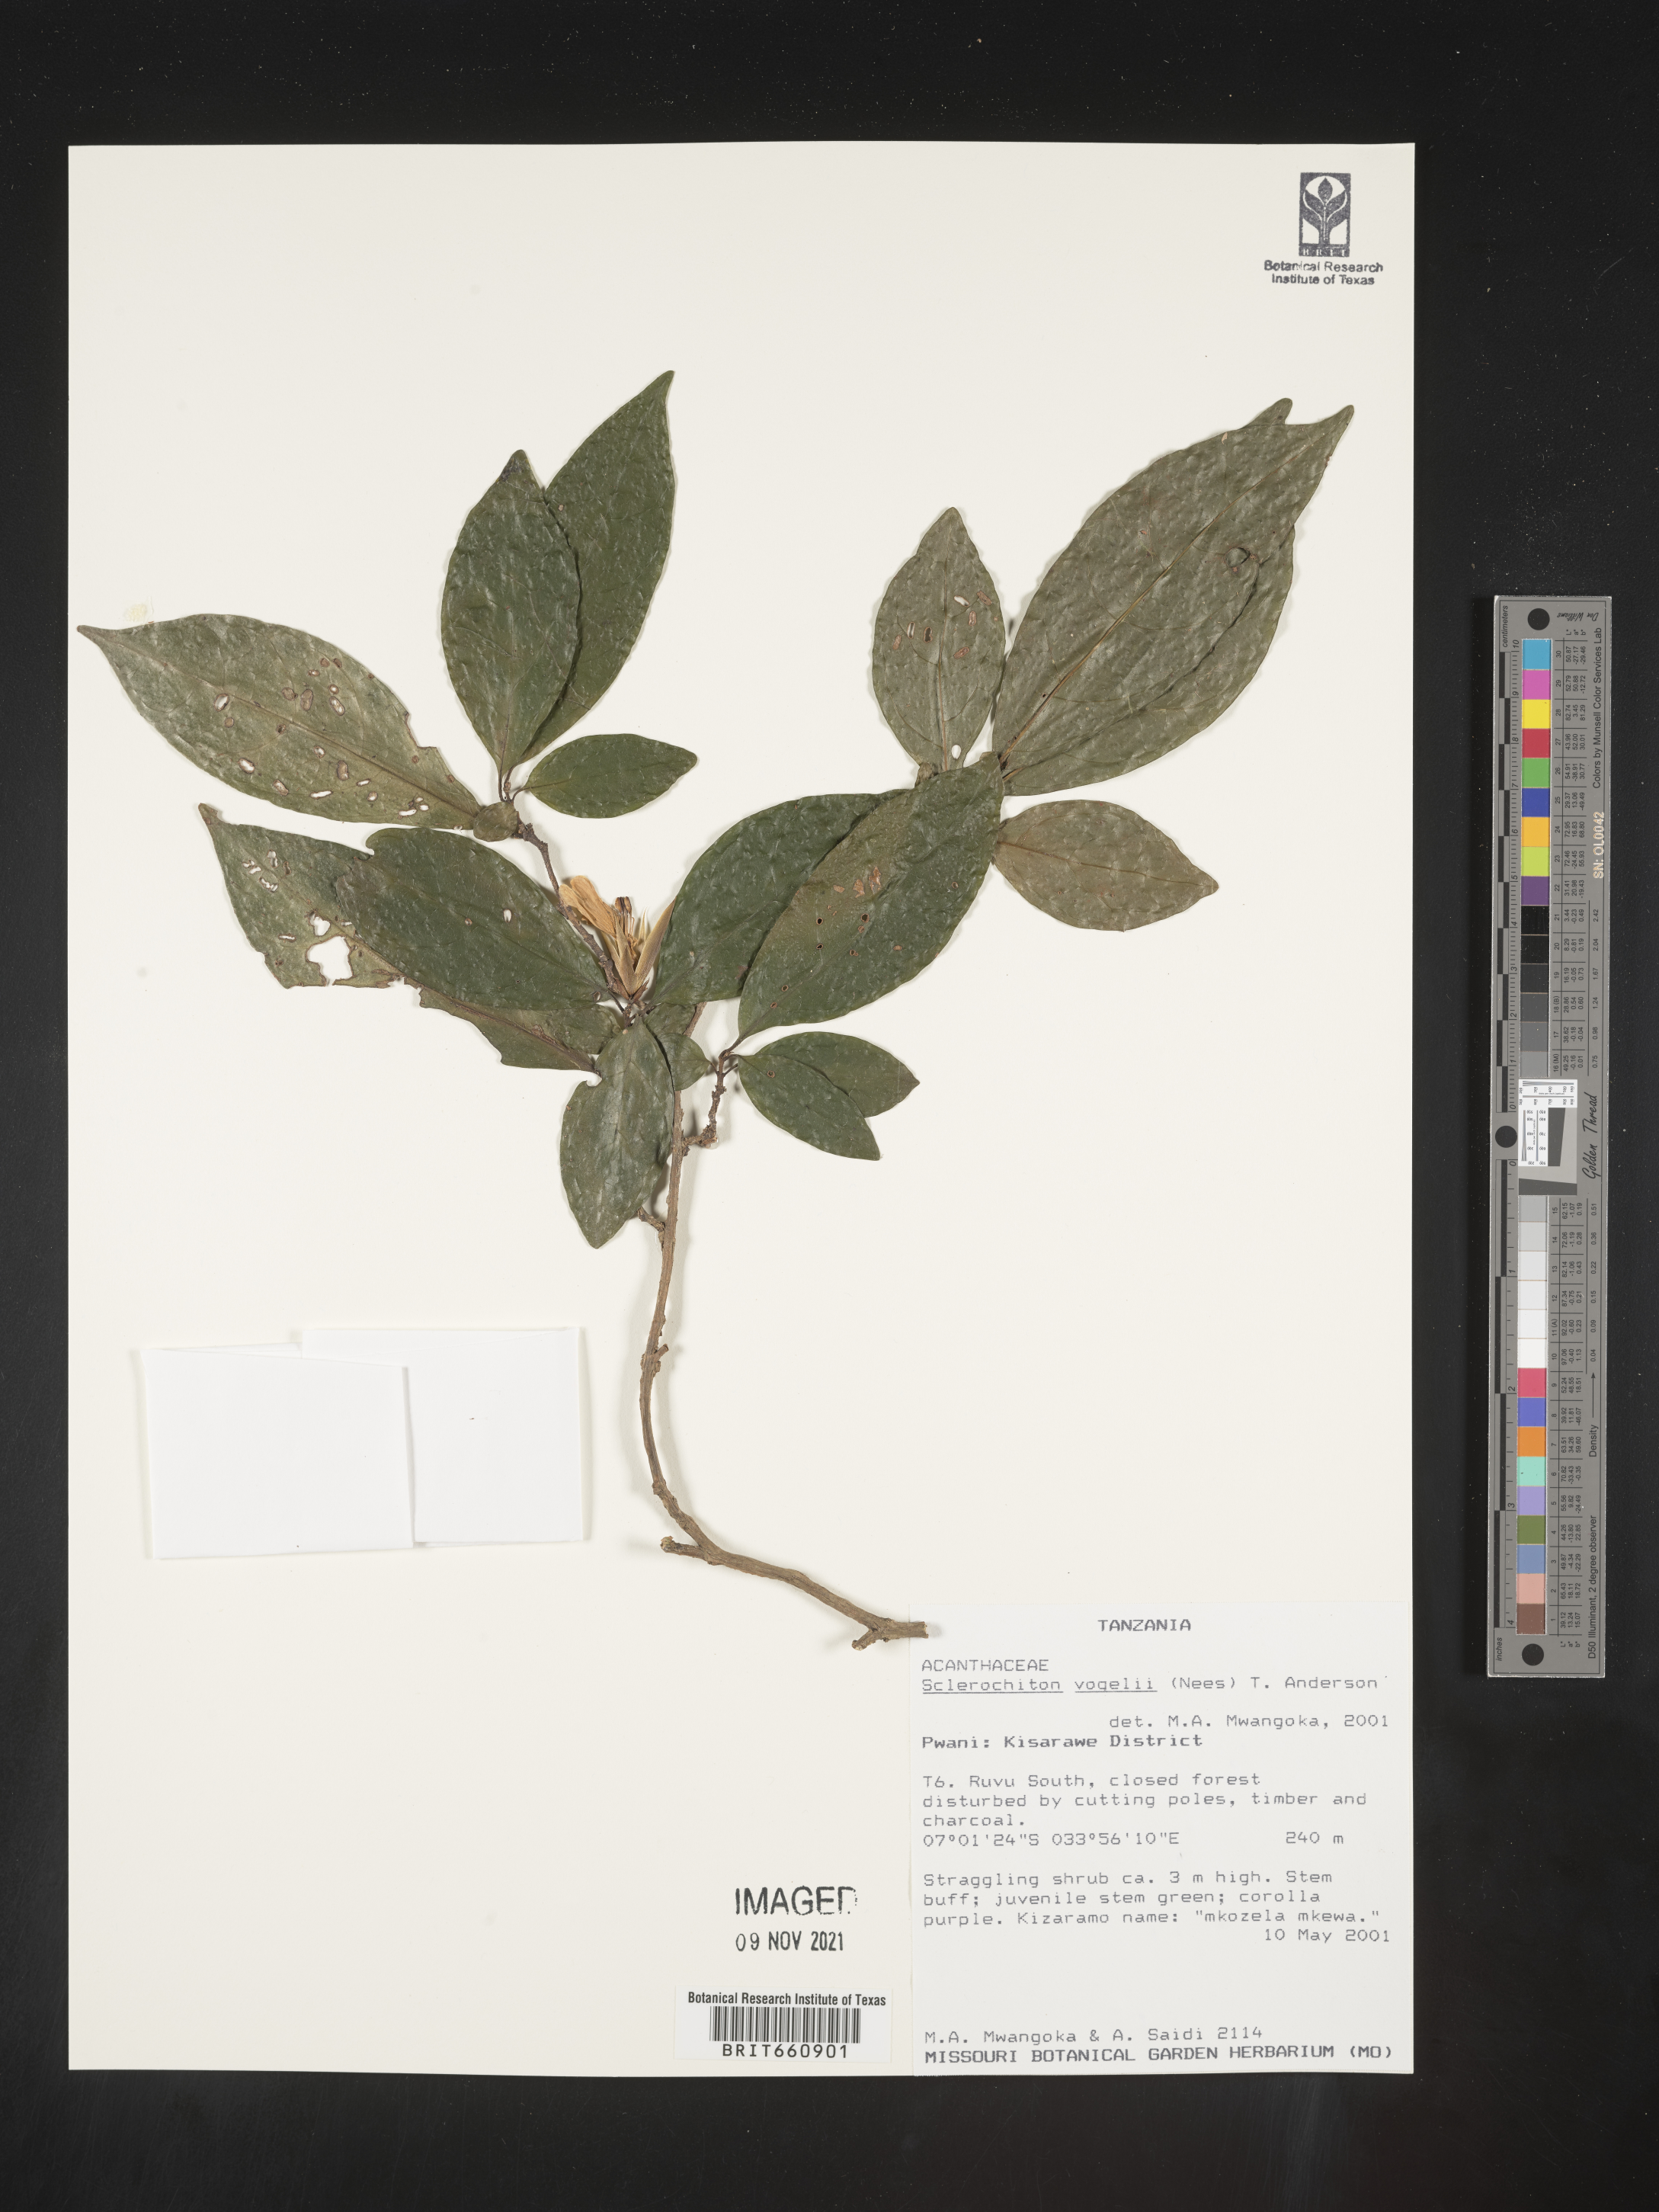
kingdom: Plantae
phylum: Tracheophyta
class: Magnoliopsida
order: Lamiales
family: Acanthaceae
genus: Sclerochiton
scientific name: Sclerochiton
